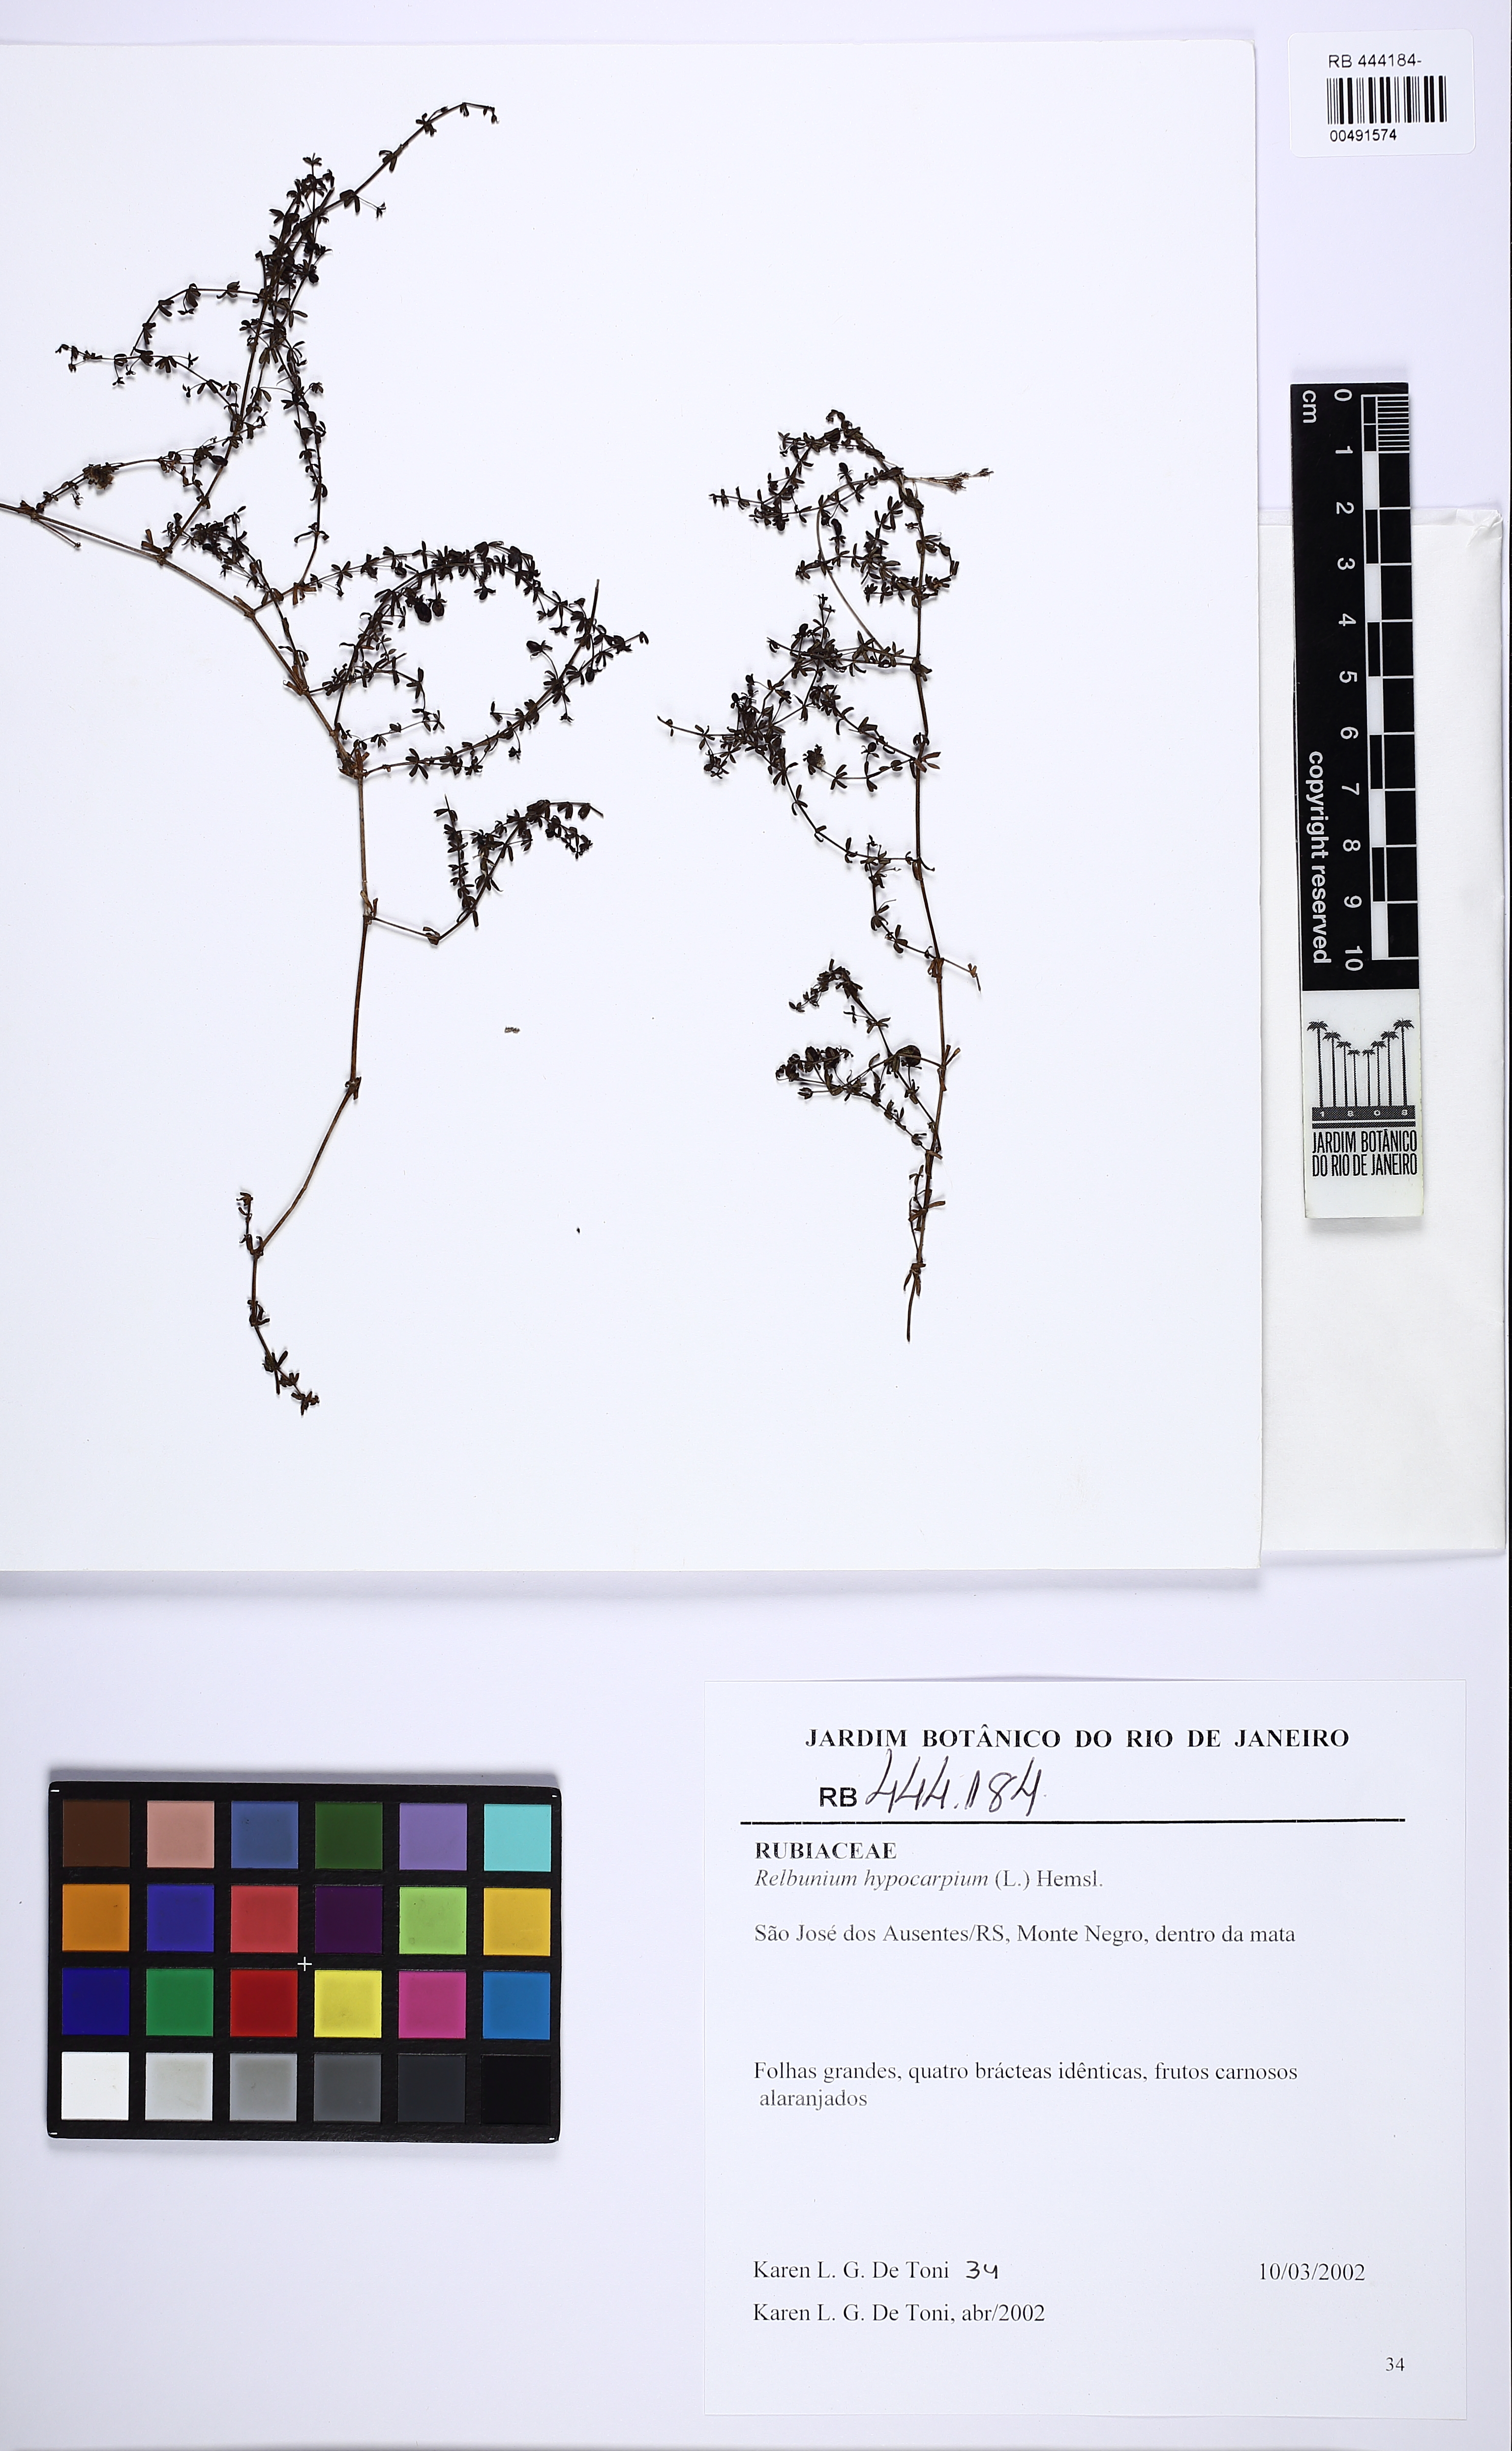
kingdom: Plantae
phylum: Tracheophyta
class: Magnoliopsida
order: Gentianales
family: Rubiaceae
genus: Galium
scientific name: Galium hypocarpium
